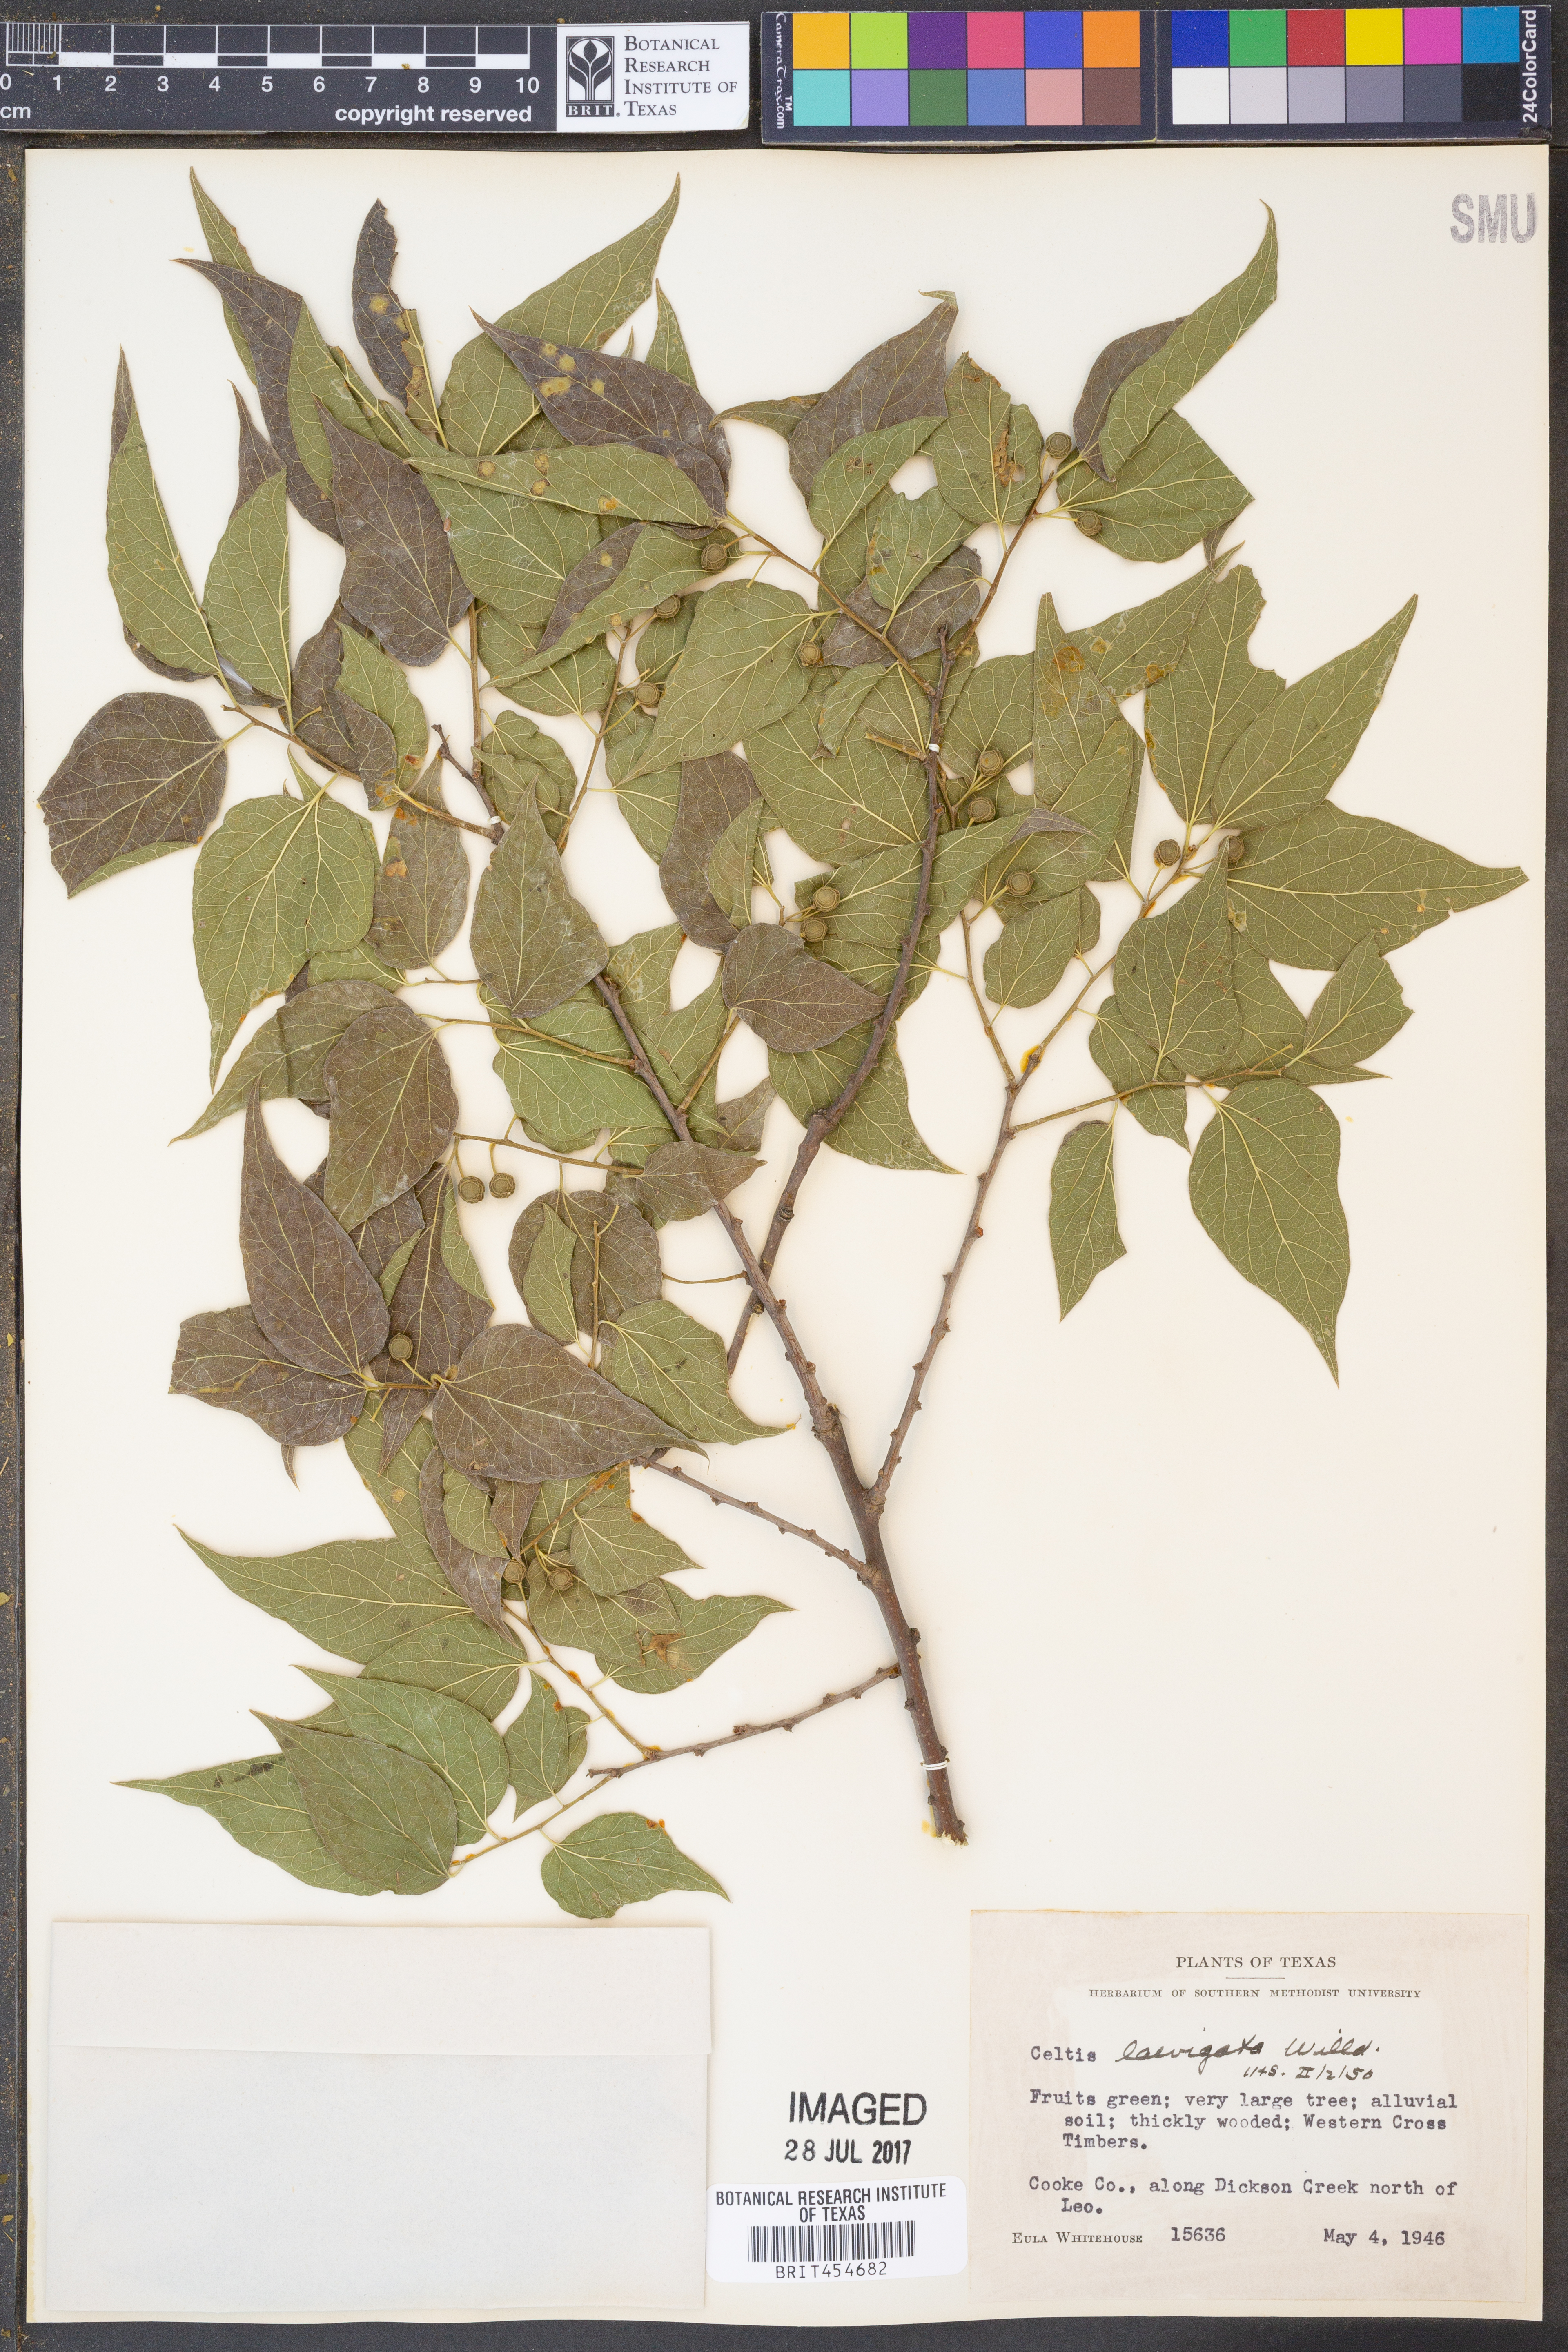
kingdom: Plantae
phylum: Tracheophyta
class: Magnoliopsida
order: Rosales
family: Cannabaceae
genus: Celtis
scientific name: Celtis laevigata
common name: Sugarberry
